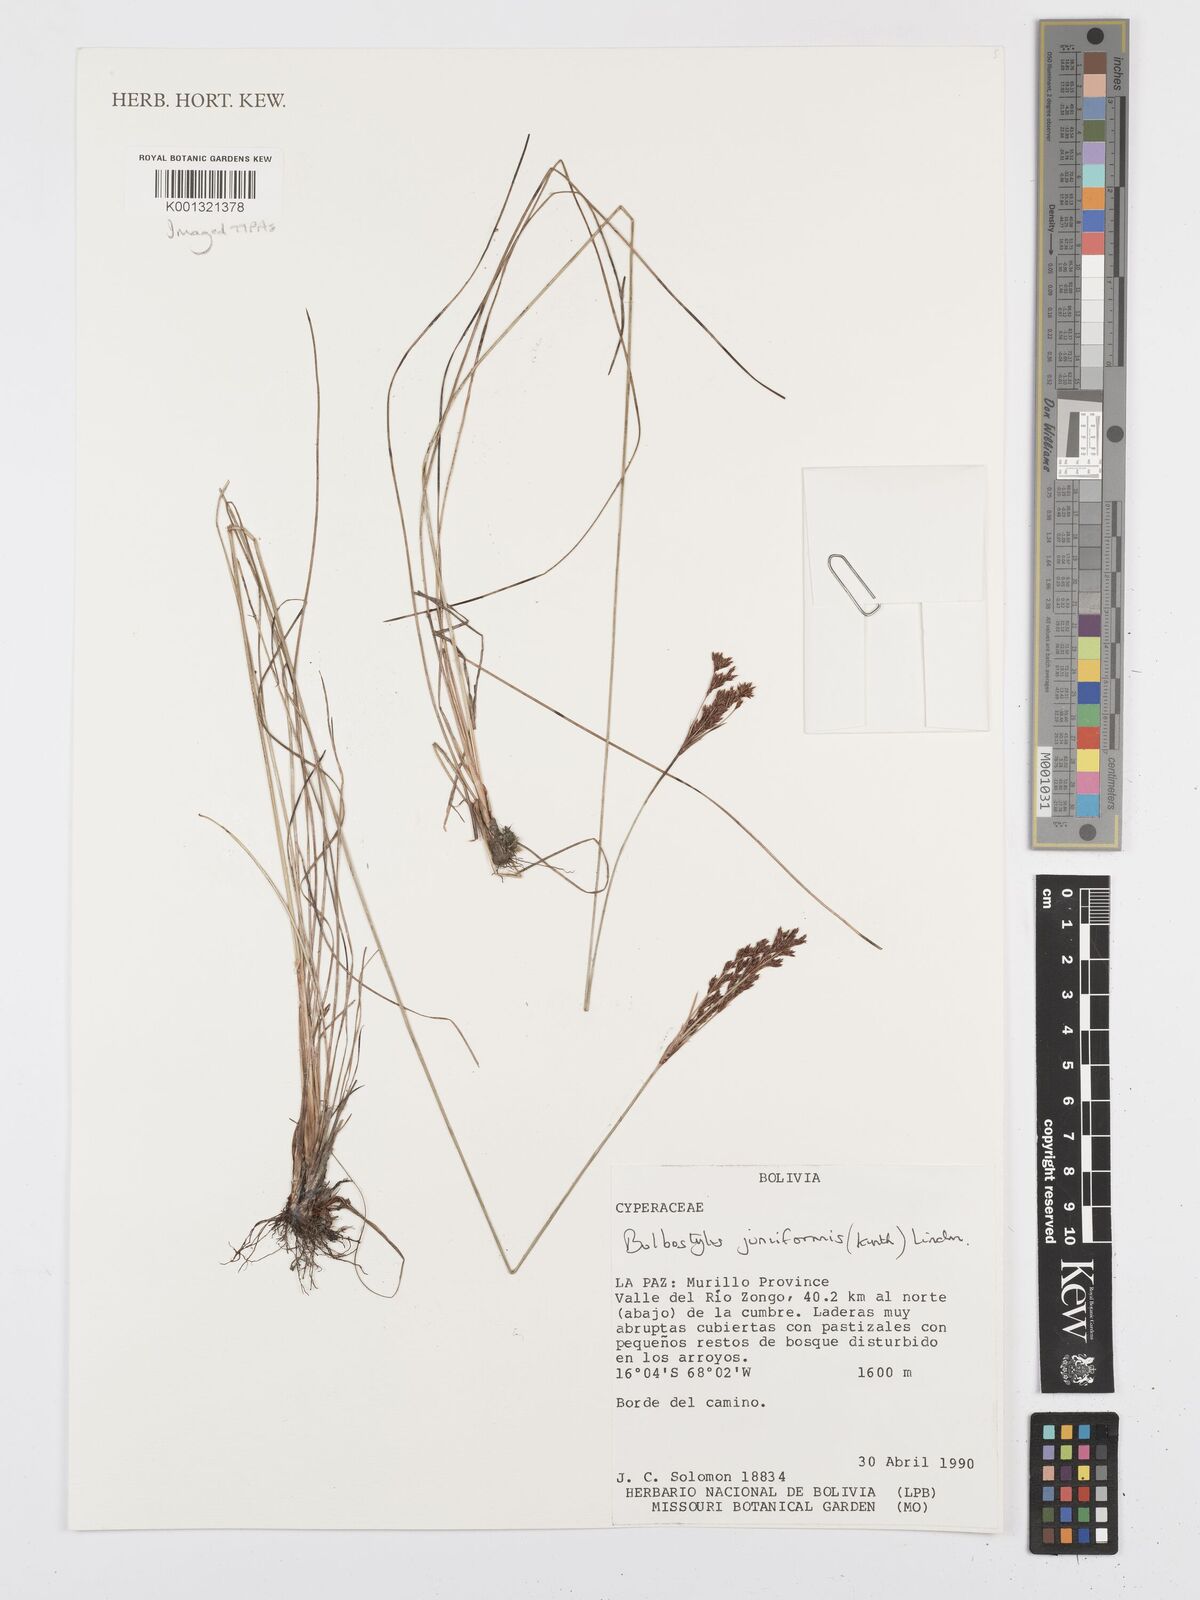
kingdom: Plantae
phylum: Tracheophyta
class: Liliopsida
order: Poales
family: Cyperaceae
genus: Bulbostylis
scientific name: Bulbostylis junciformis
